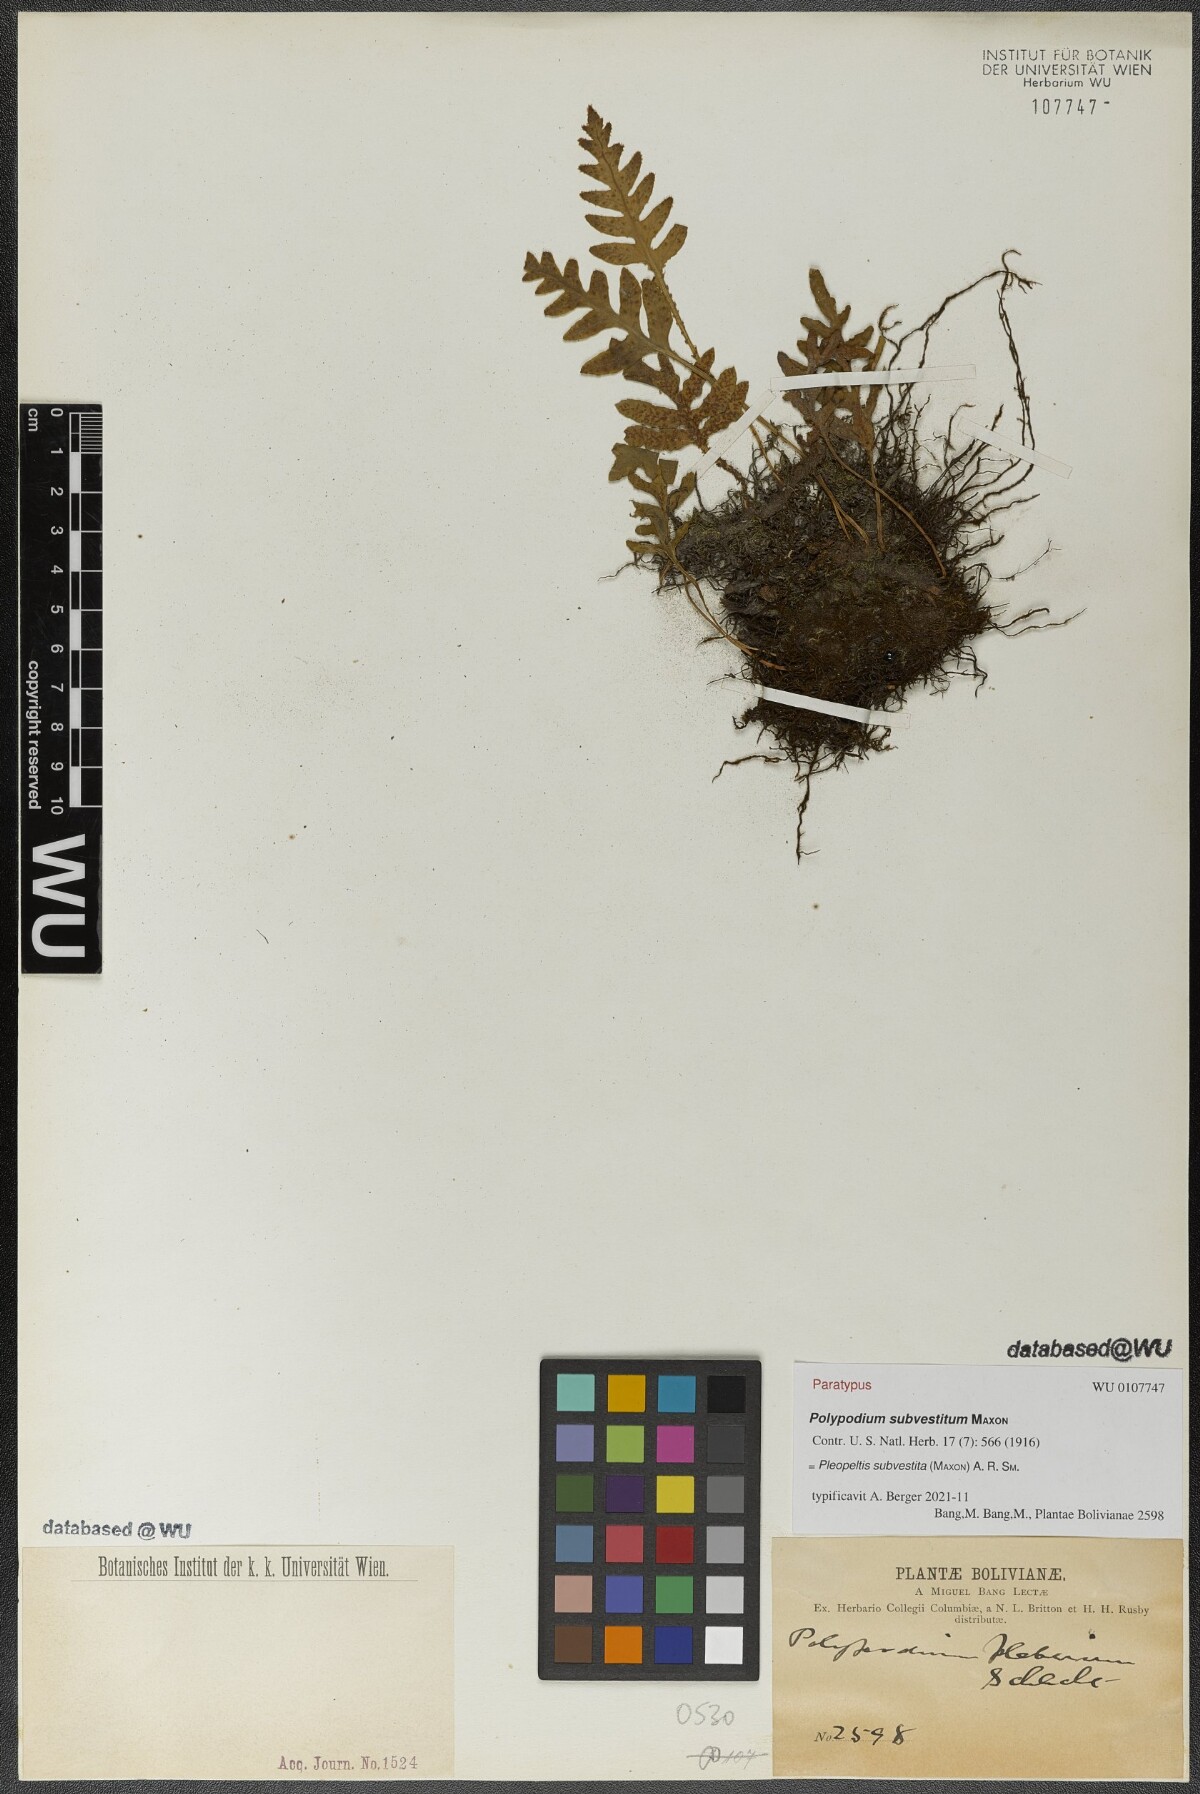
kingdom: Plantae
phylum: Tracheophyta
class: Polypodiopsida
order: Polypodiales
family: Polypodiaceae
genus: Pleopeltis
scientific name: Pleopeltis subvestita
